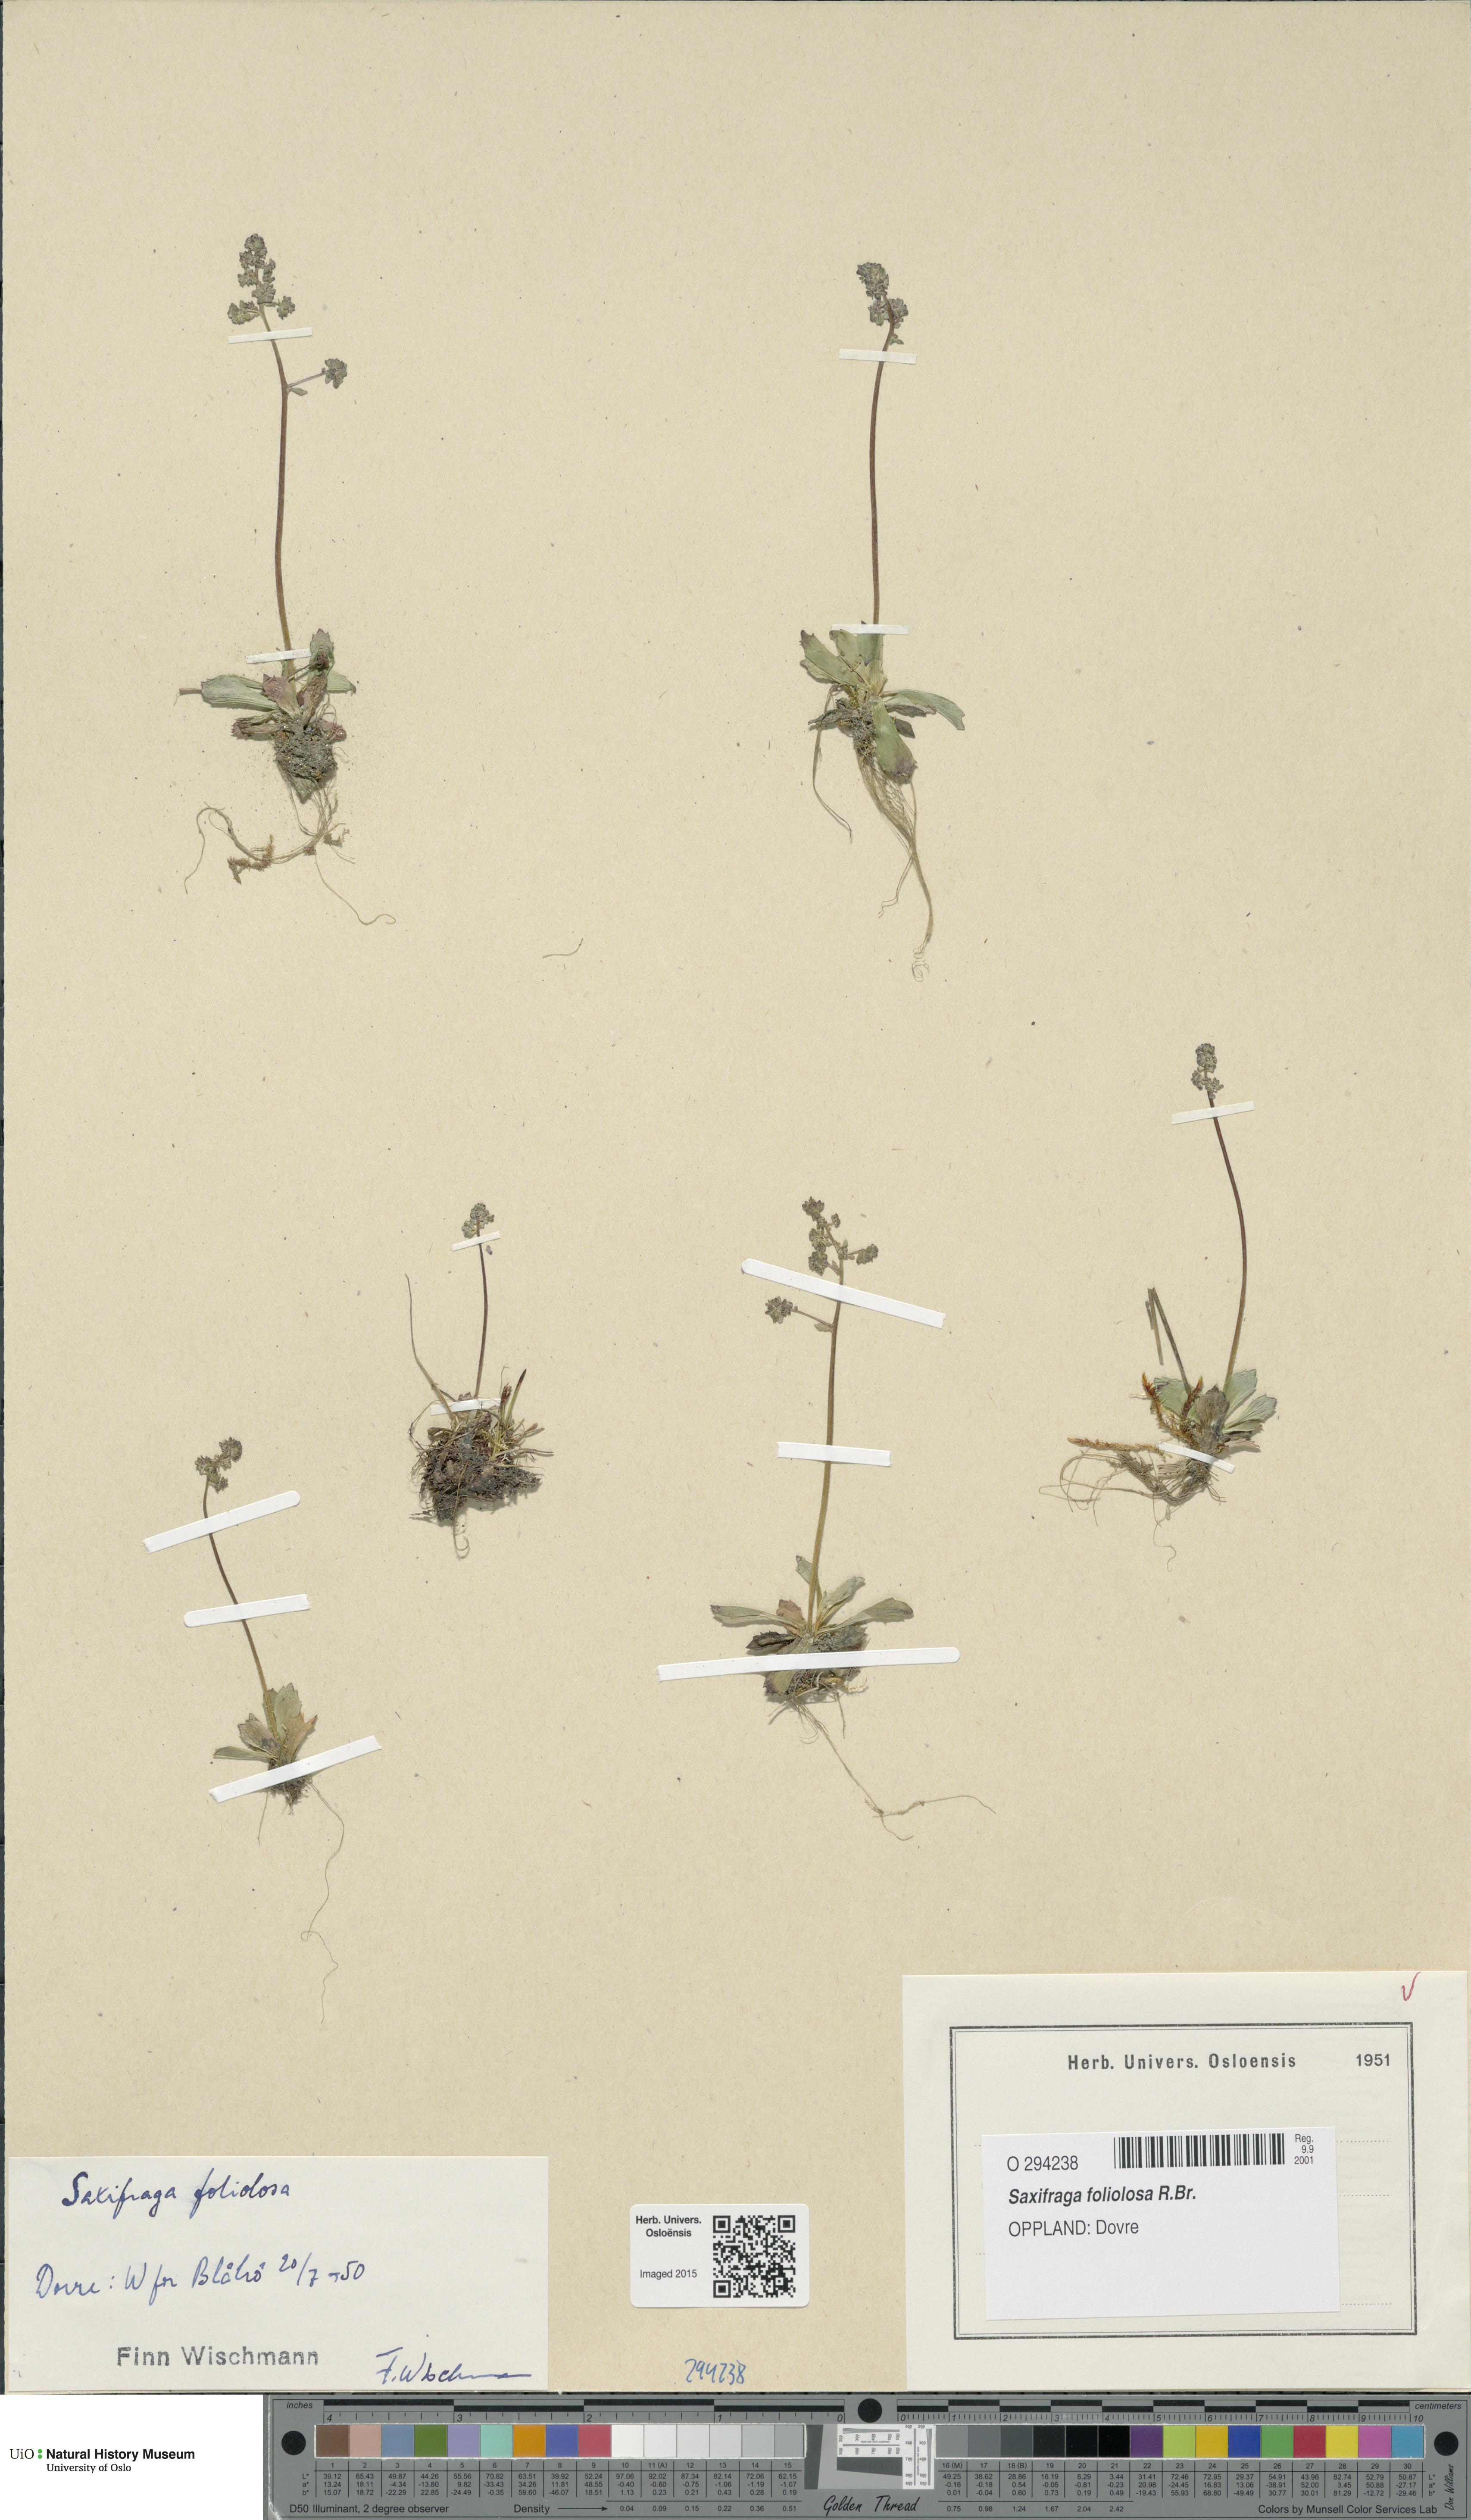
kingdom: Plantae
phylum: Tracheophyta
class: Magnoliopsida
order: Saxifragales
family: Saxifragaceae
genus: Micranthes
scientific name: Micranthes foliolosa
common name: Leafystem saxifrage
